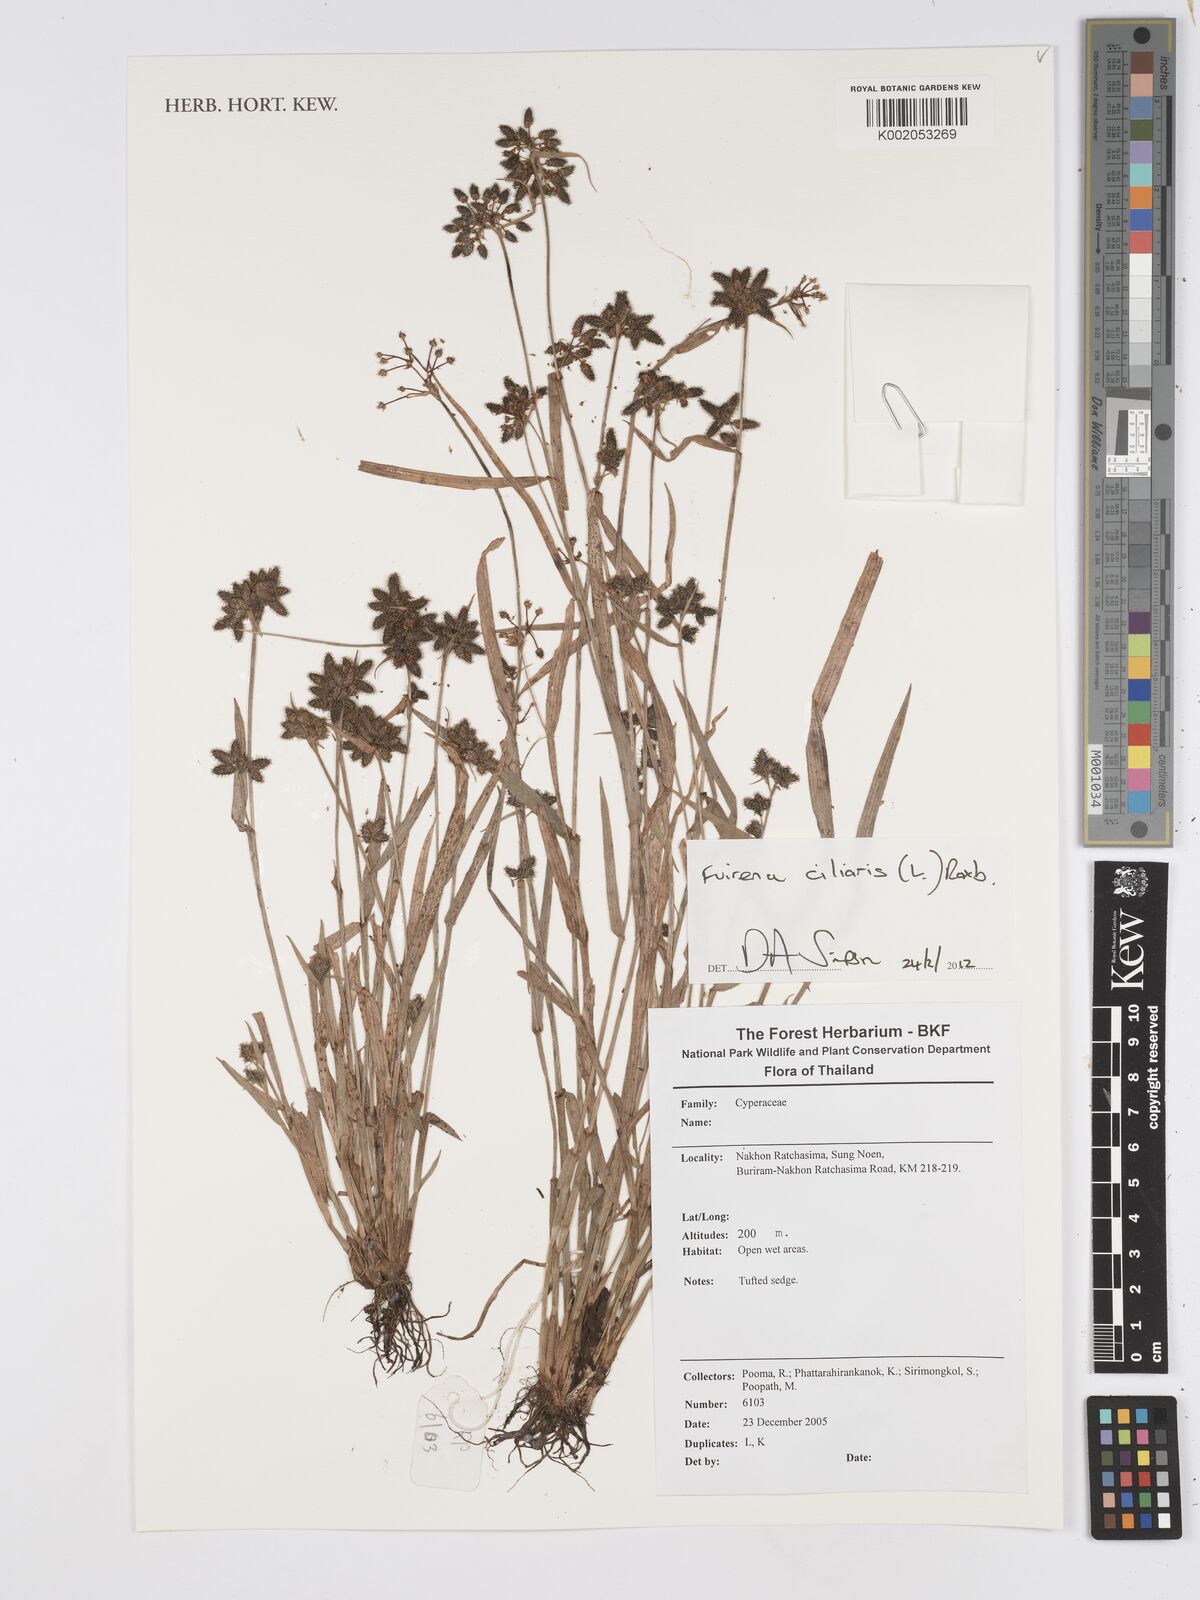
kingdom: Plantae
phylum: Tracheophyta
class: Liliopsida
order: Poales
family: Cyperaceae
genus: Fuirena
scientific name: Fuirena ciliaris
